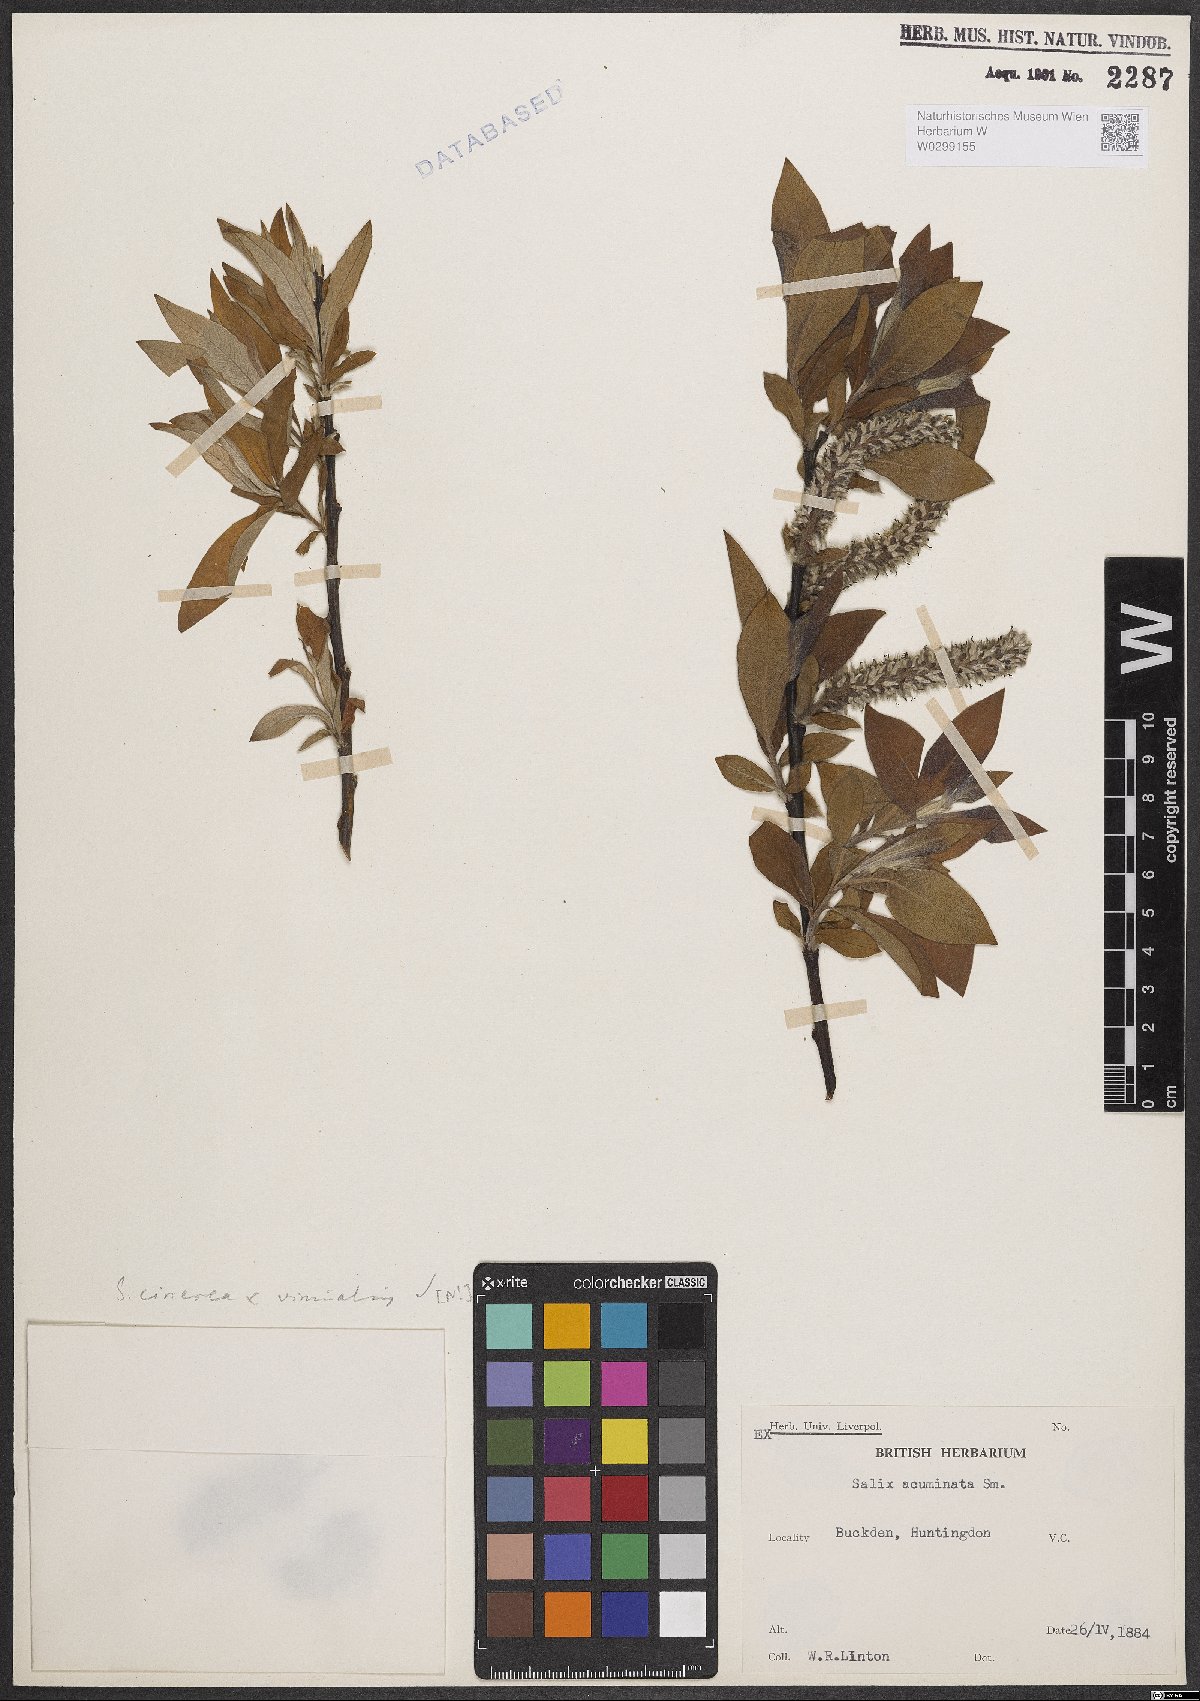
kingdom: Plantae
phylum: Tracheophyta
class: Magnoliopsida
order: Malpighiales
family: Salicaceae
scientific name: Salicaceae
